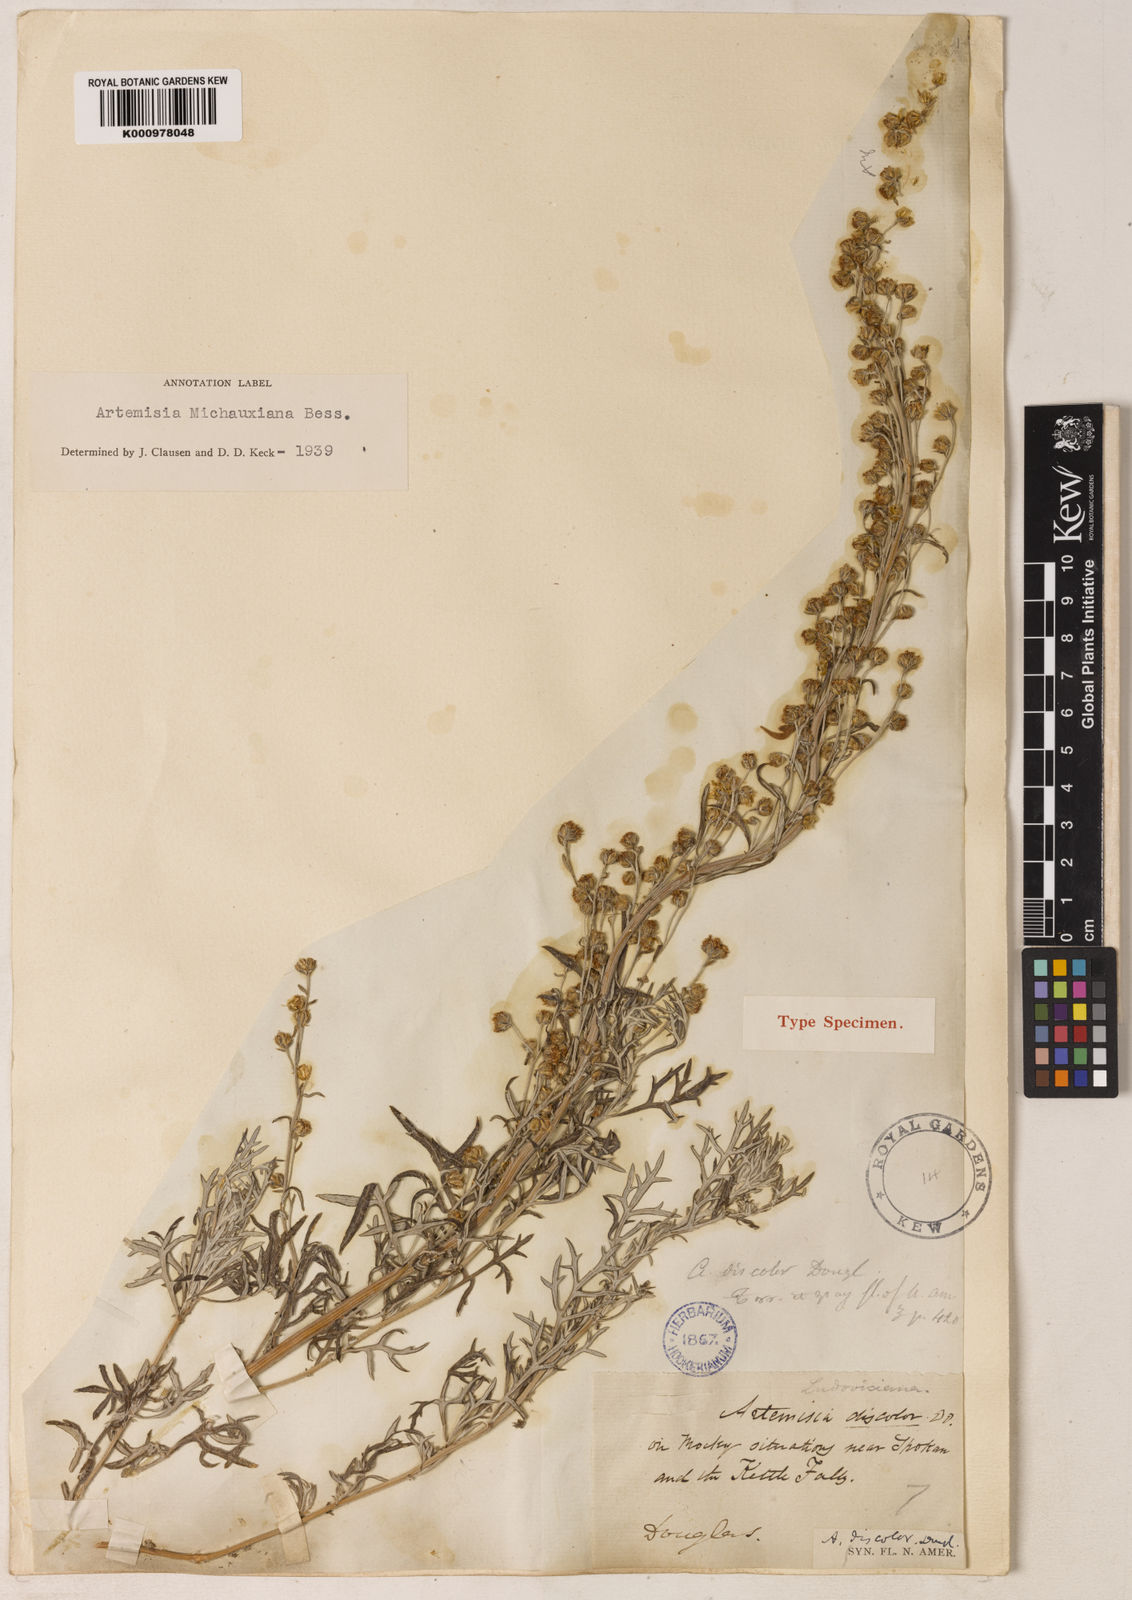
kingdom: Plantae
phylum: Tracheophyta
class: Magnoliopsida
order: Asterales
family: Asteraceae
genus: Artemisia
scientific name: Artemisia michauxiana
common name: Lemon sagewort
